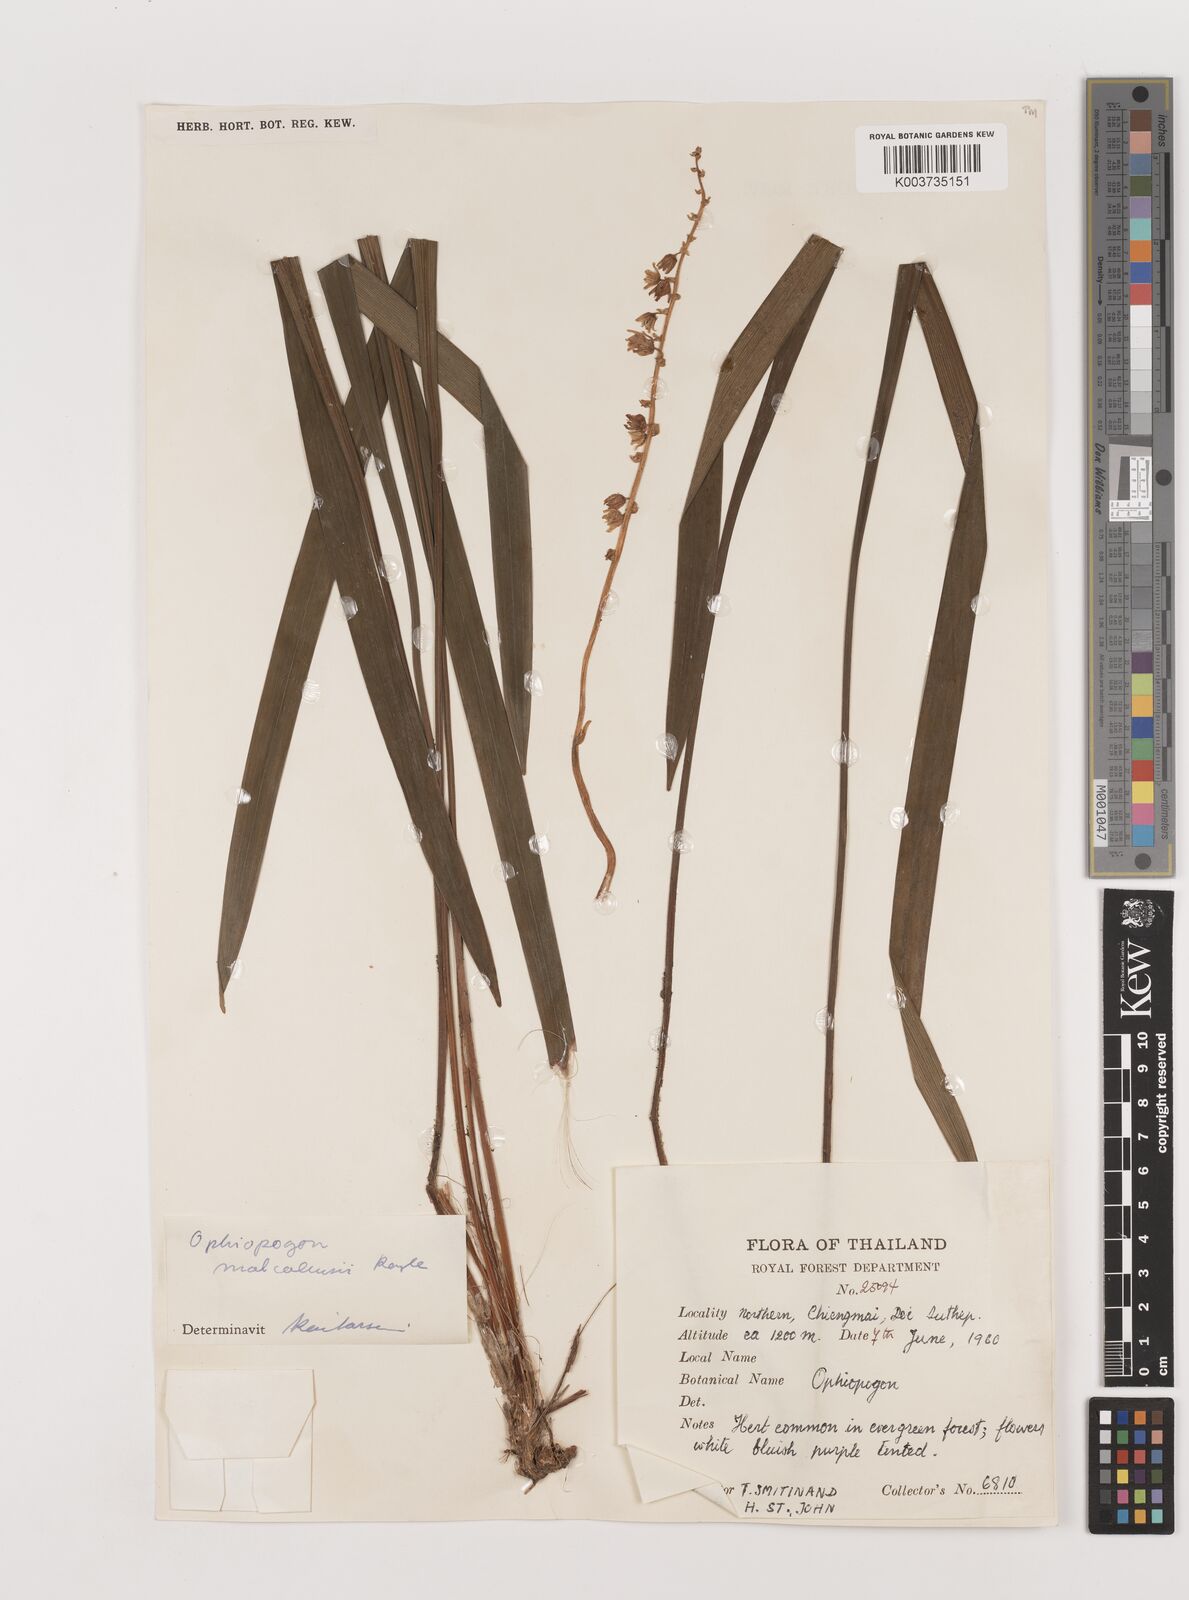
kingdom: Plantae
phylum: Tracheophyta
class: Liliopsida
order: Asparagales
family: Asparagaceae
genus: Ophiopogon
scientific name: Ophiopogon malcolmsonii
